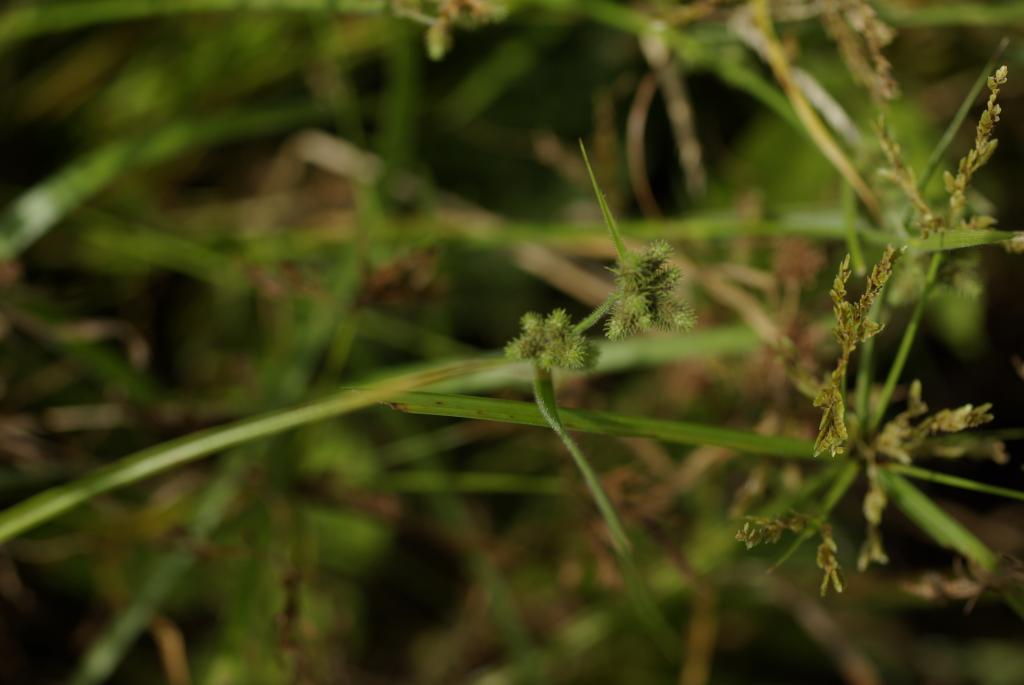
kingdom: Plantae
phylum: Tracheophyta
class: Liliopsida
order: Poales
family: Cyperaceae
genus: Fuirena
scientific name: Fuirena ciliaris
